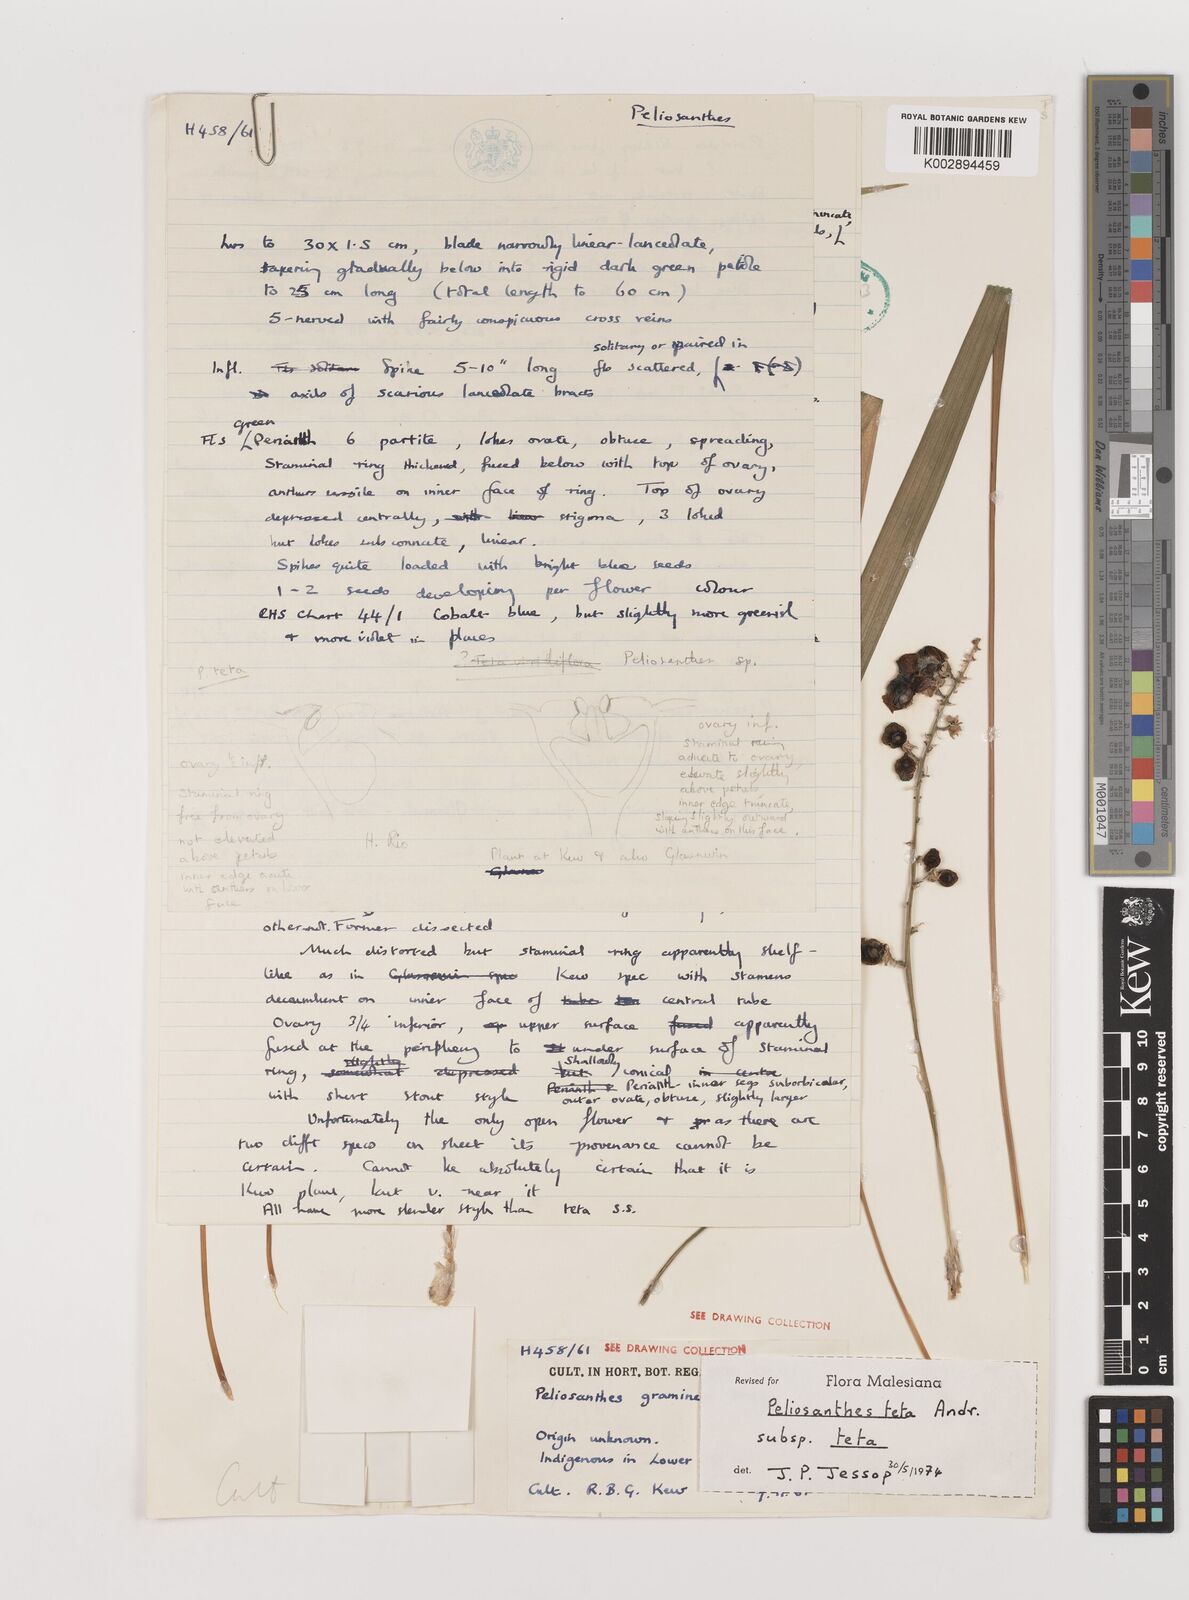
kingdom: Plantae
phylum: Tracheophyta
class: Liliopsida
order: Asparagales
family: Asparagaceae
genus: Peliosanthes
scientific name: Peliosanthes teta
